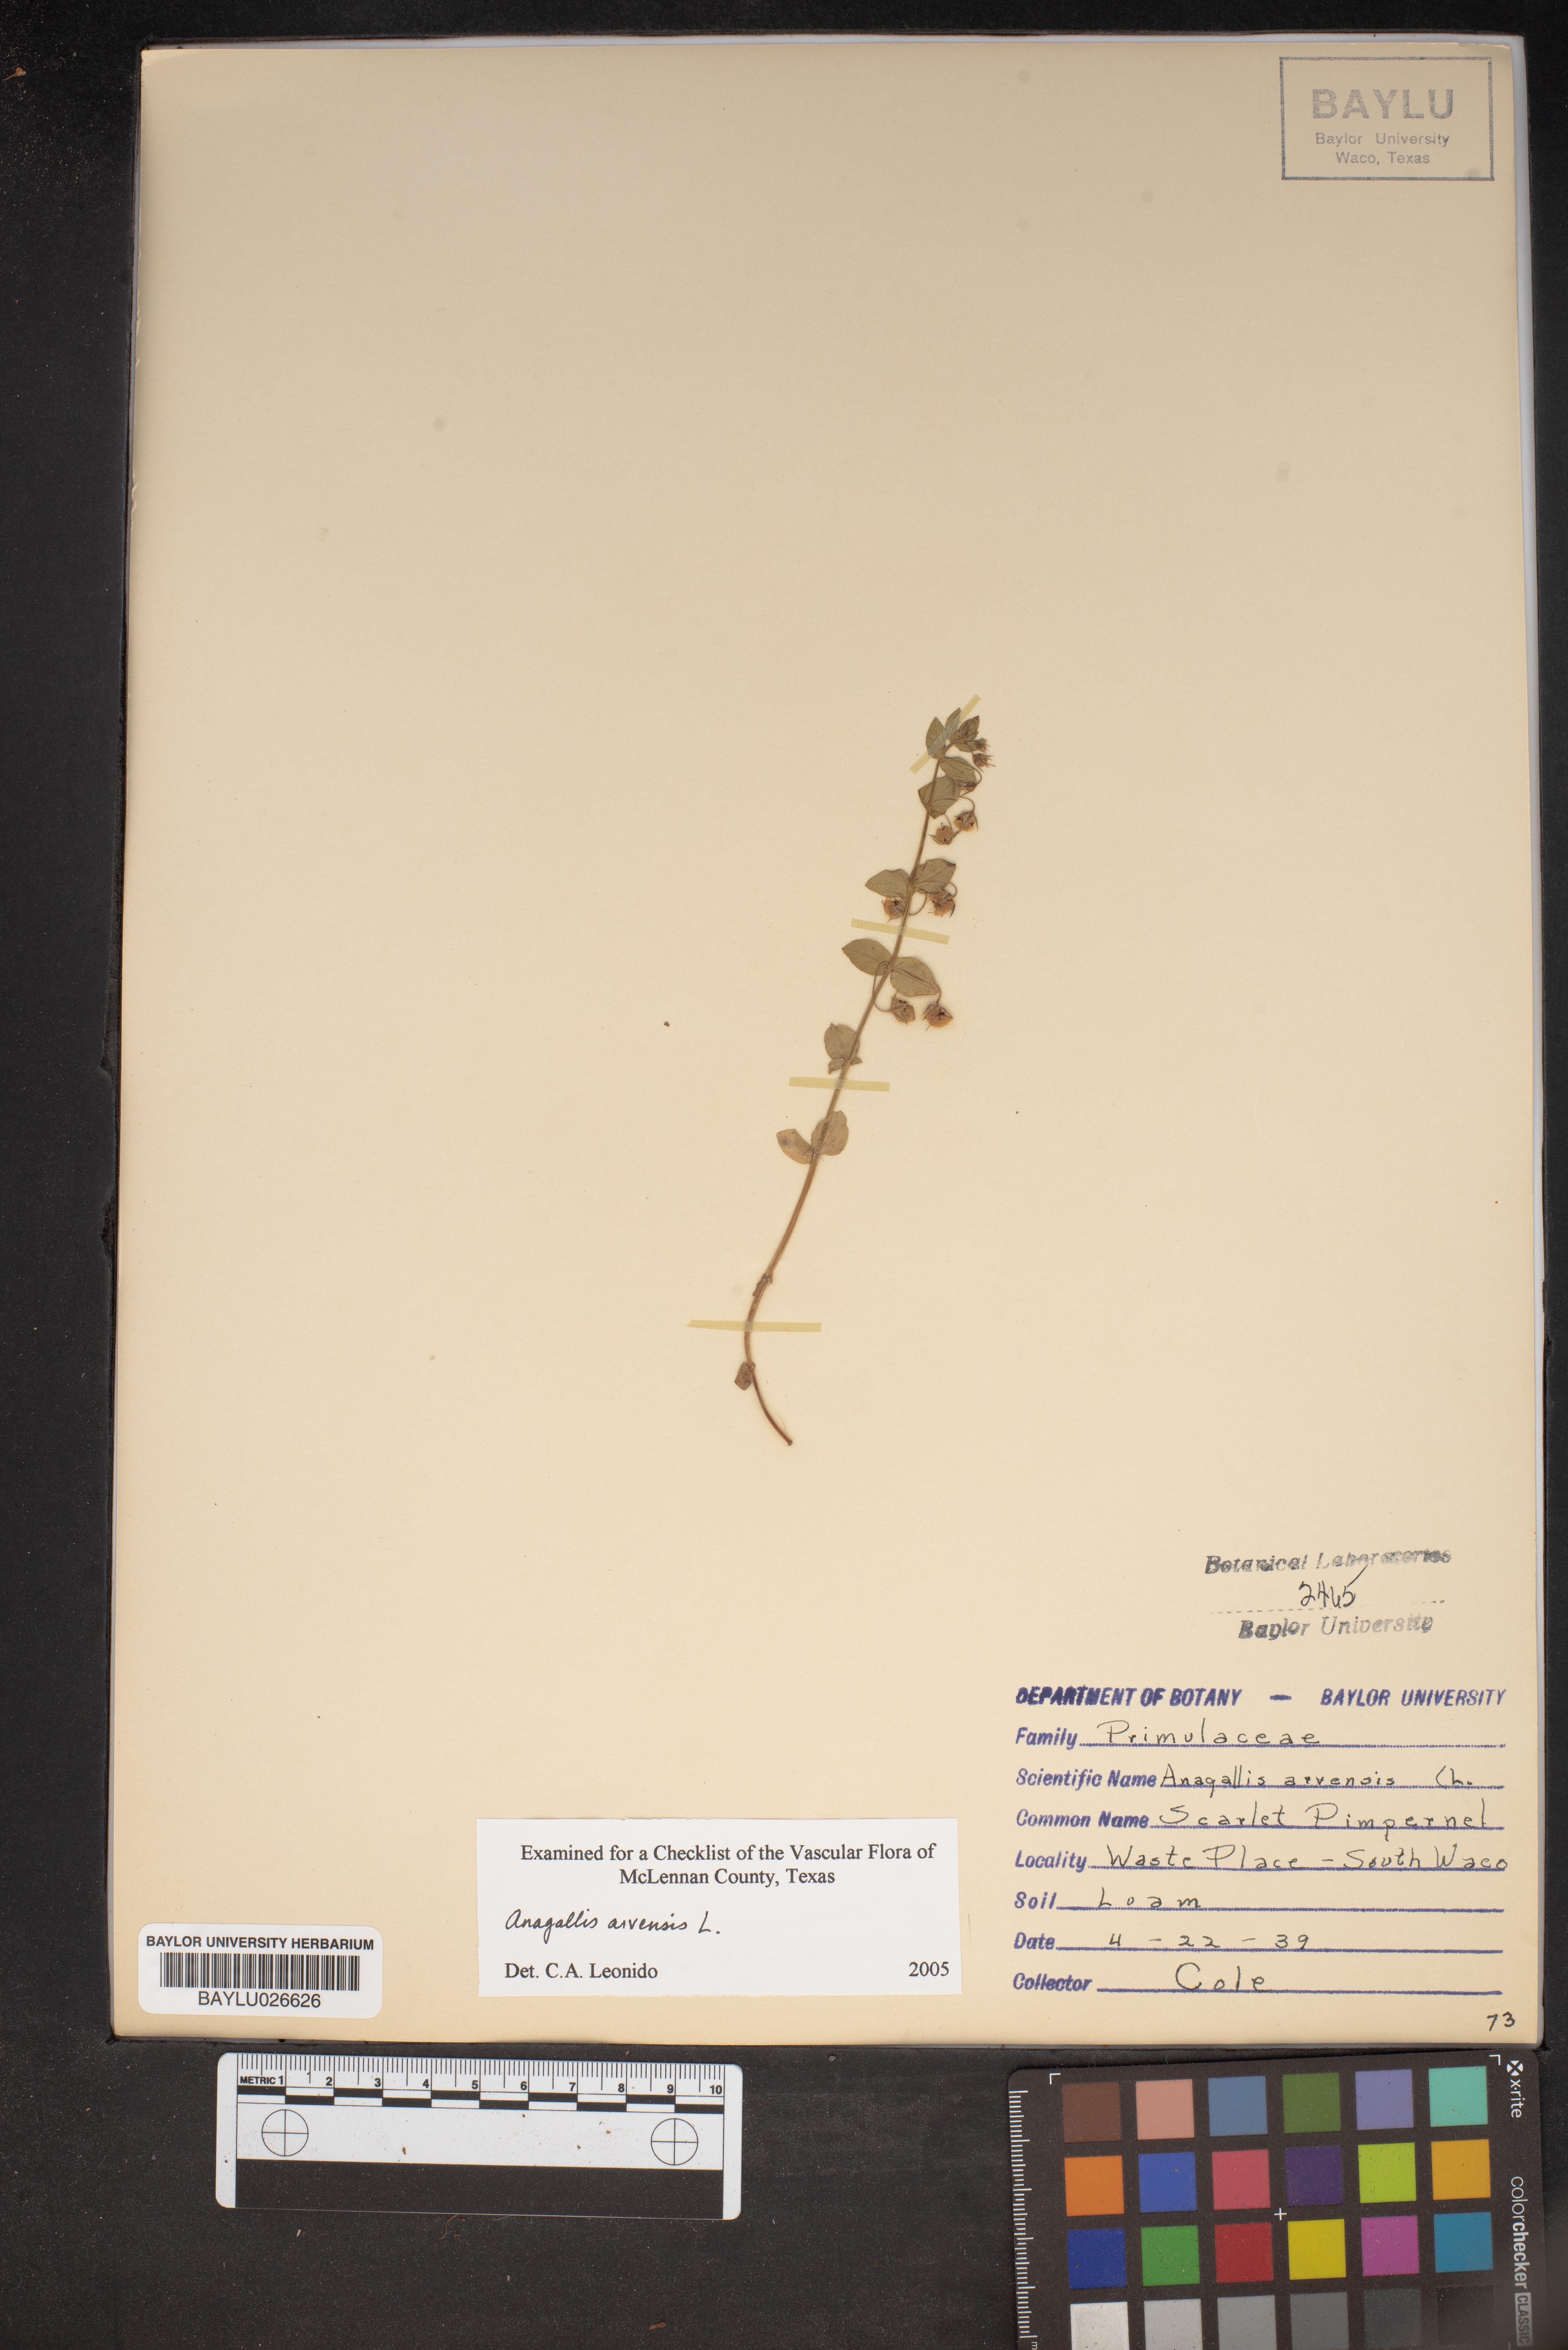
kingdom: Plantae
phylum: Tracheophyta
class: Magnoliopsida
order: Ericales
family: Primulaceae
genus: Lysimachia
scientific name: Lysimachia arvensis
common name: Scarlet pimpernel
